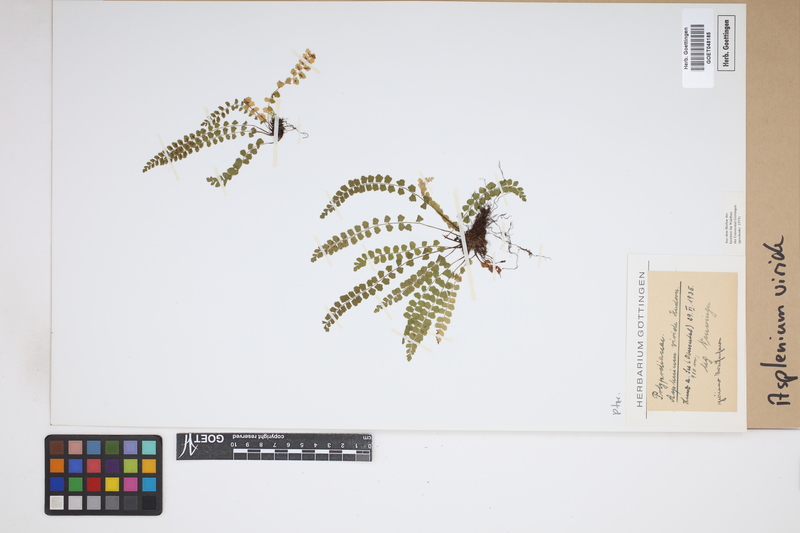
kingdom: Plantae
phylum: Tracheophyta
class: Polypodiopsida
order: Polypodiales
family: Aspleniaceae
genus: Asplenium
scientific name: Asplenium viride
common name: Green spleenwort
